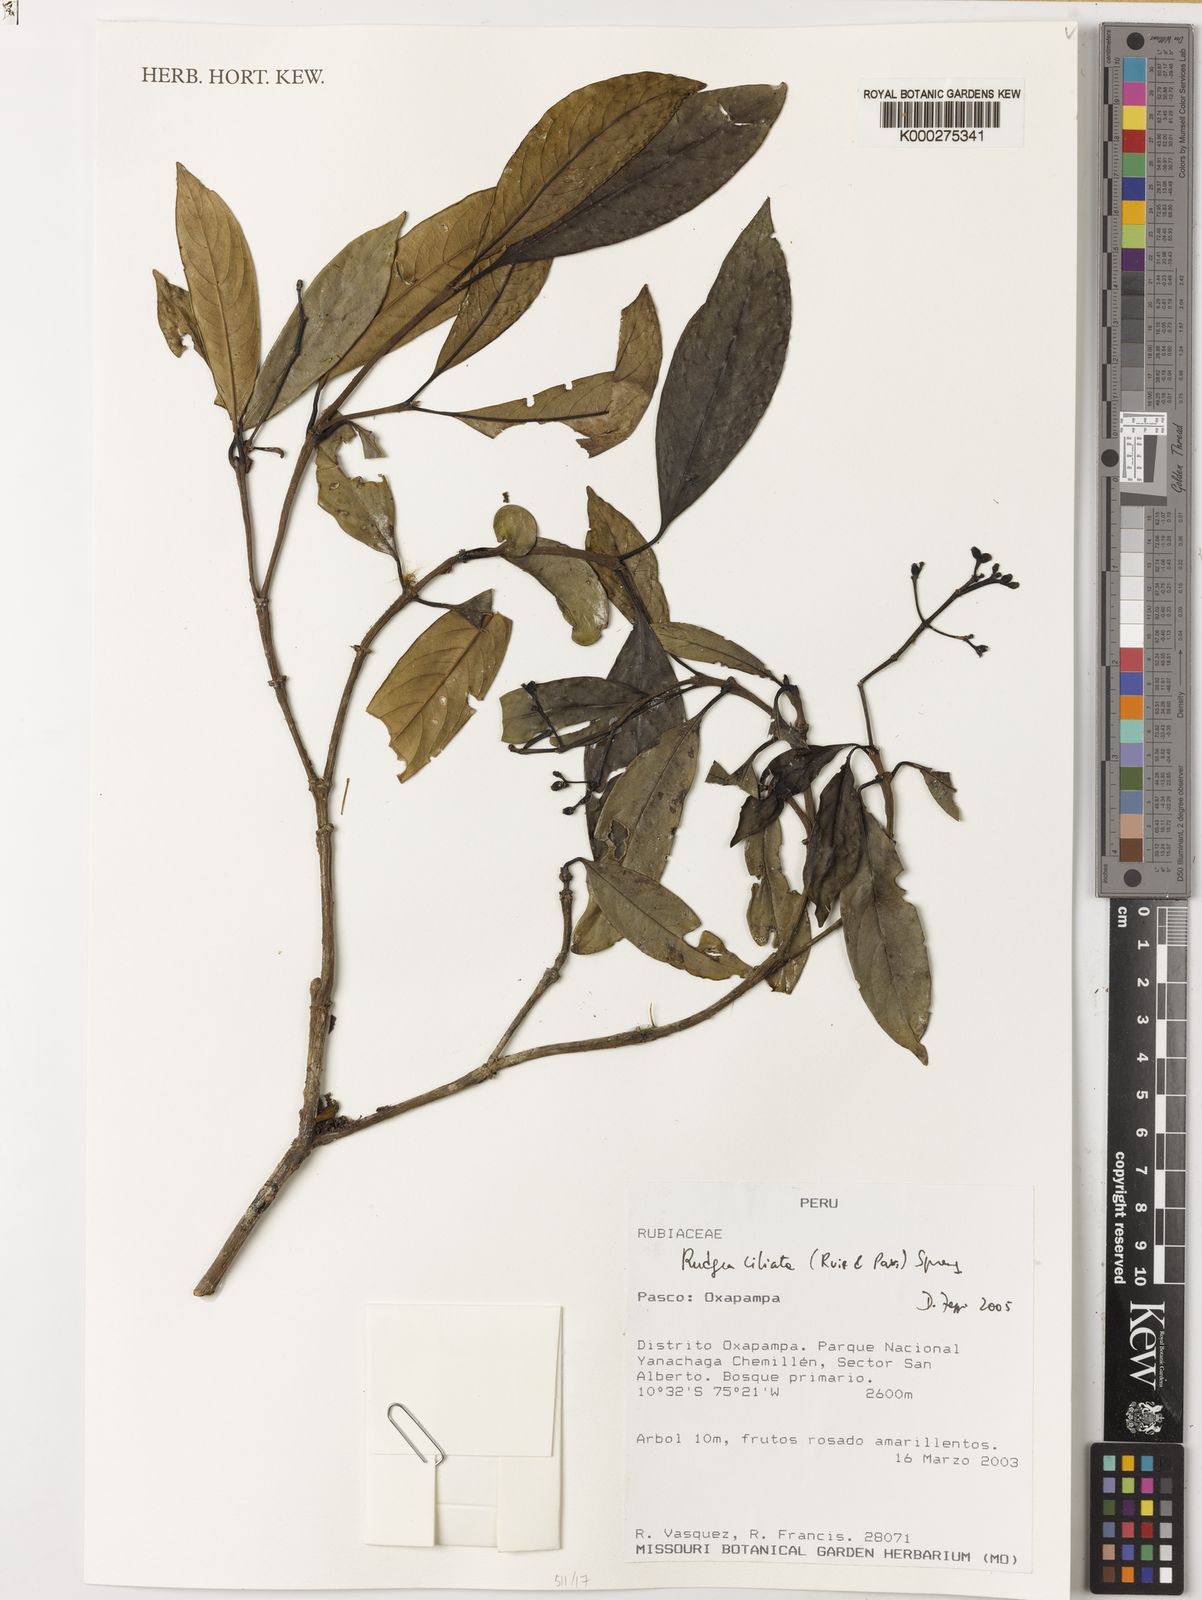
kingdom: Plantae
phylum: Tracheophyta
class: Magnoliopsida
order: Gentianales
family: Rubiaceae
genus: Rudgea
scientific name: Rudgea ciliata
